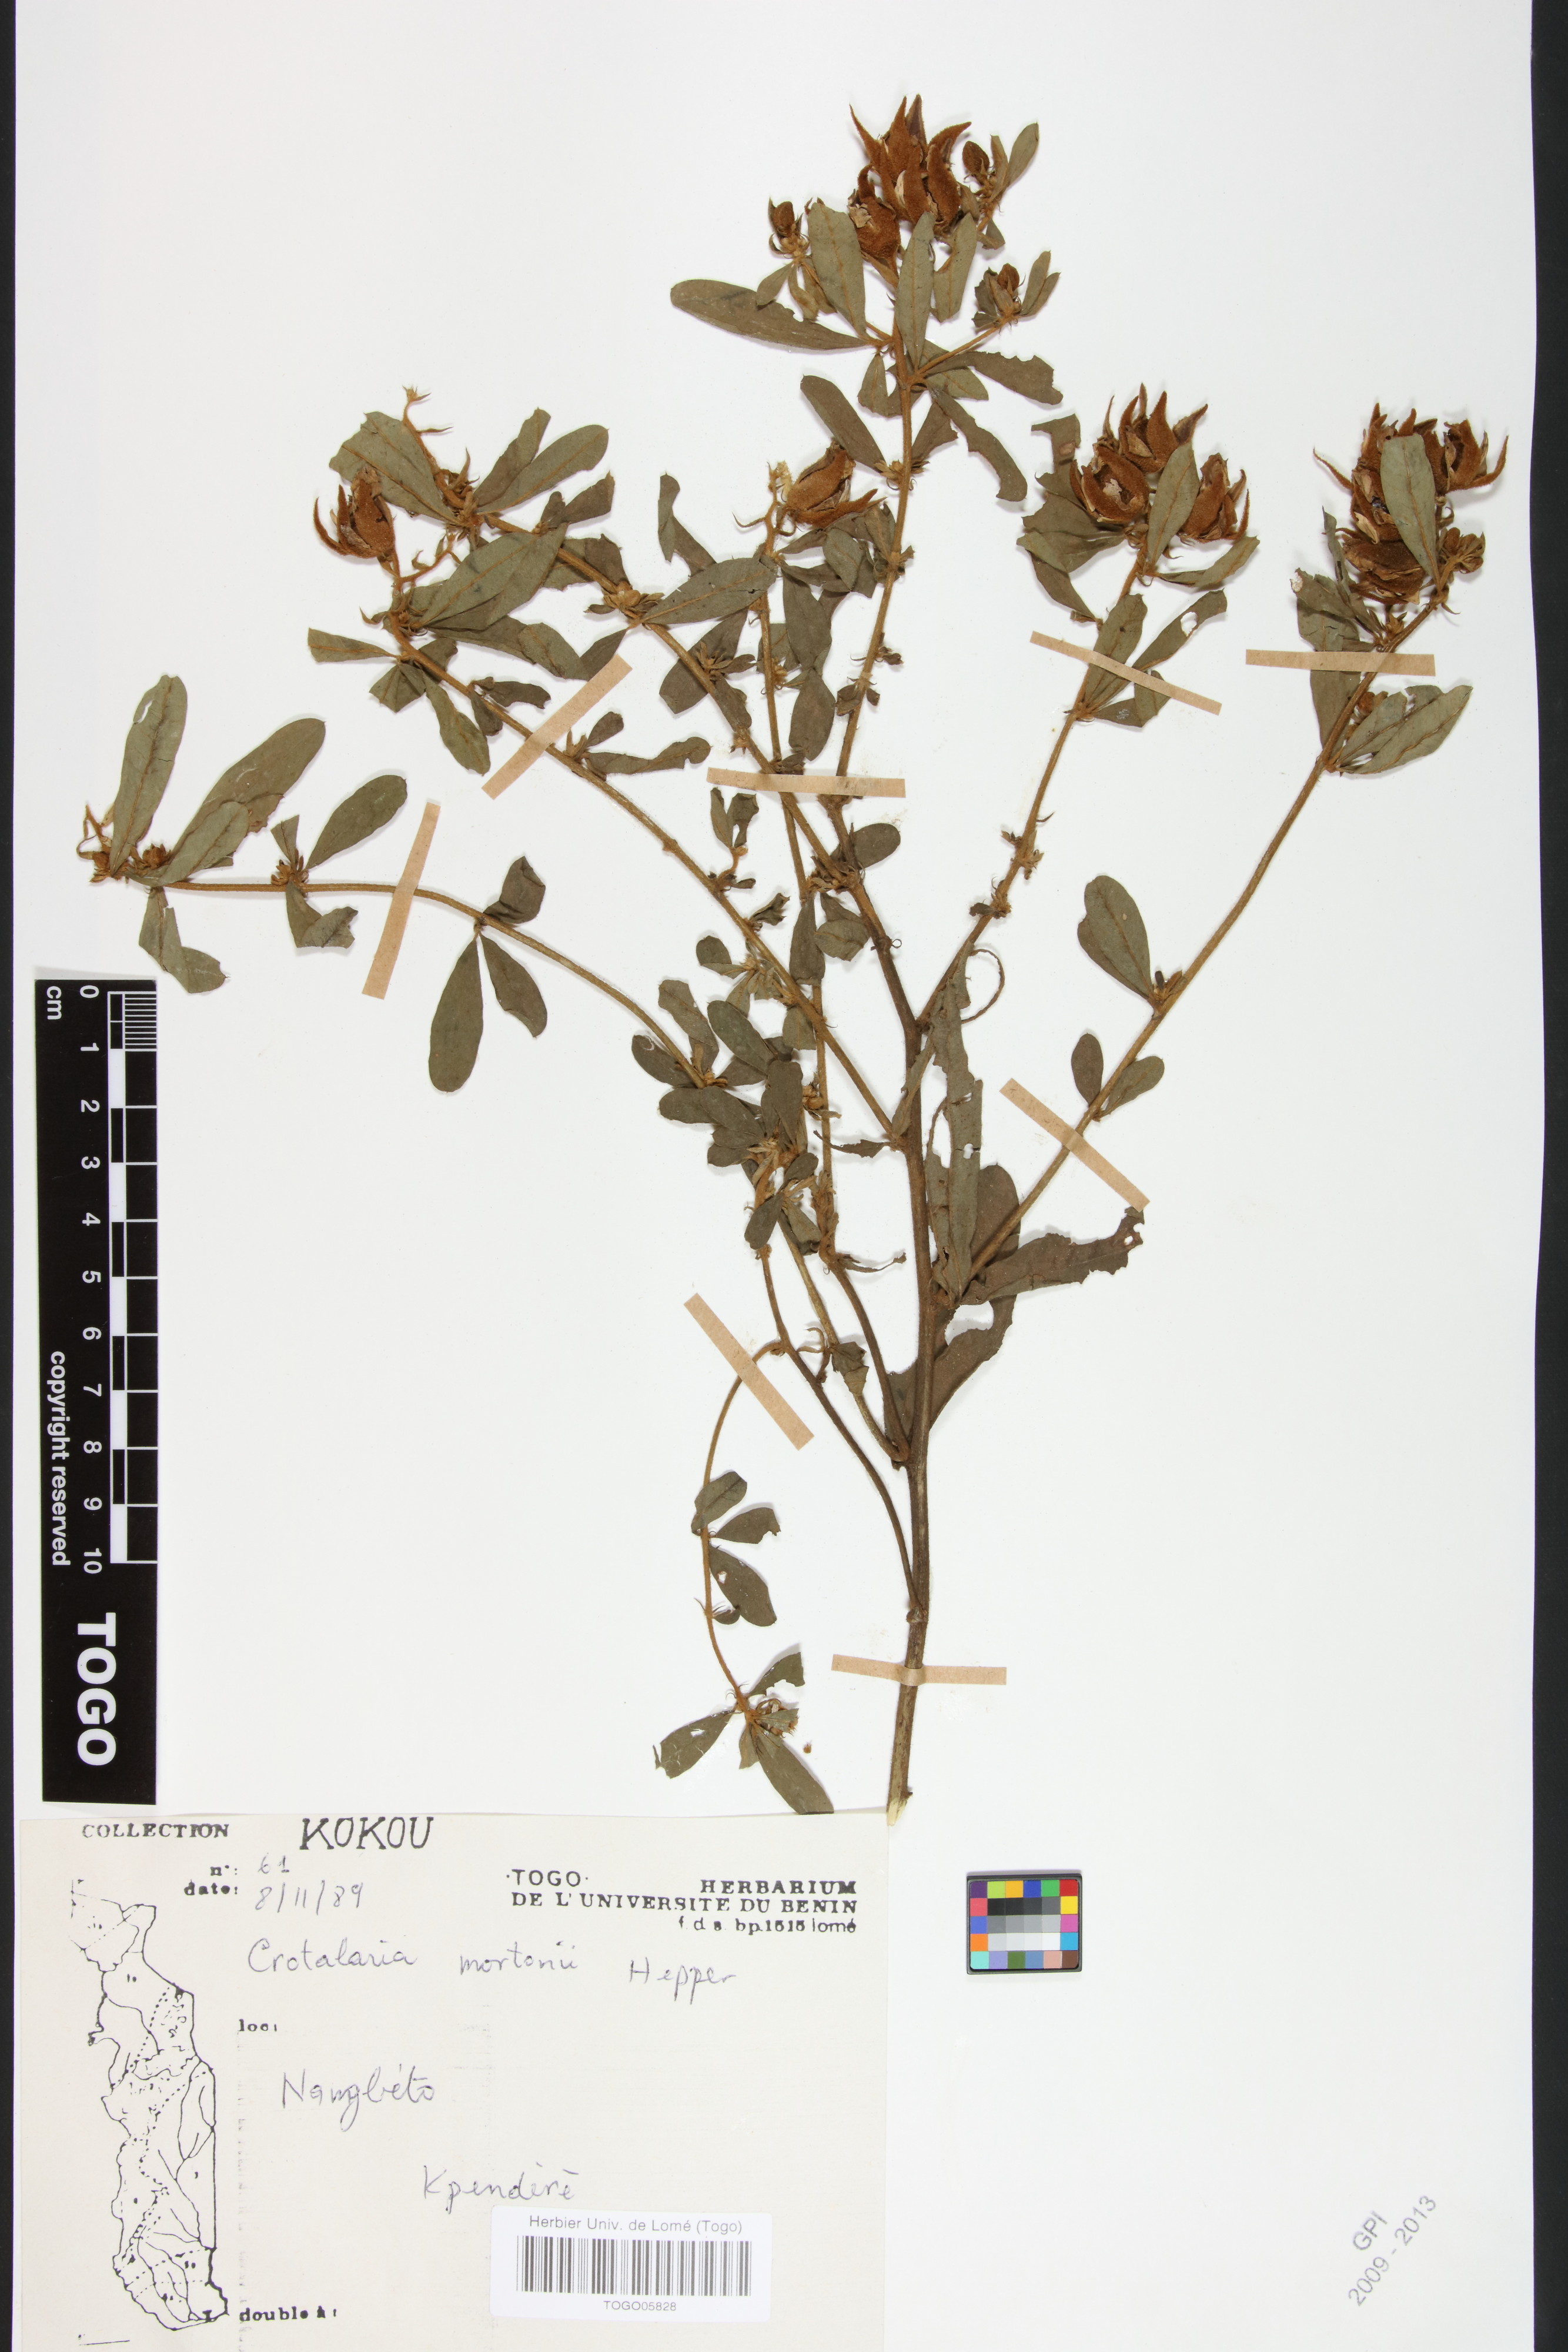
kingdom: Plantae
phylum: Tracheophyta
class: Magnoliopsida
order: Fabales
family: Fabaceae
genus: Crotalaria
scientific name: Crotalaria mortonii
